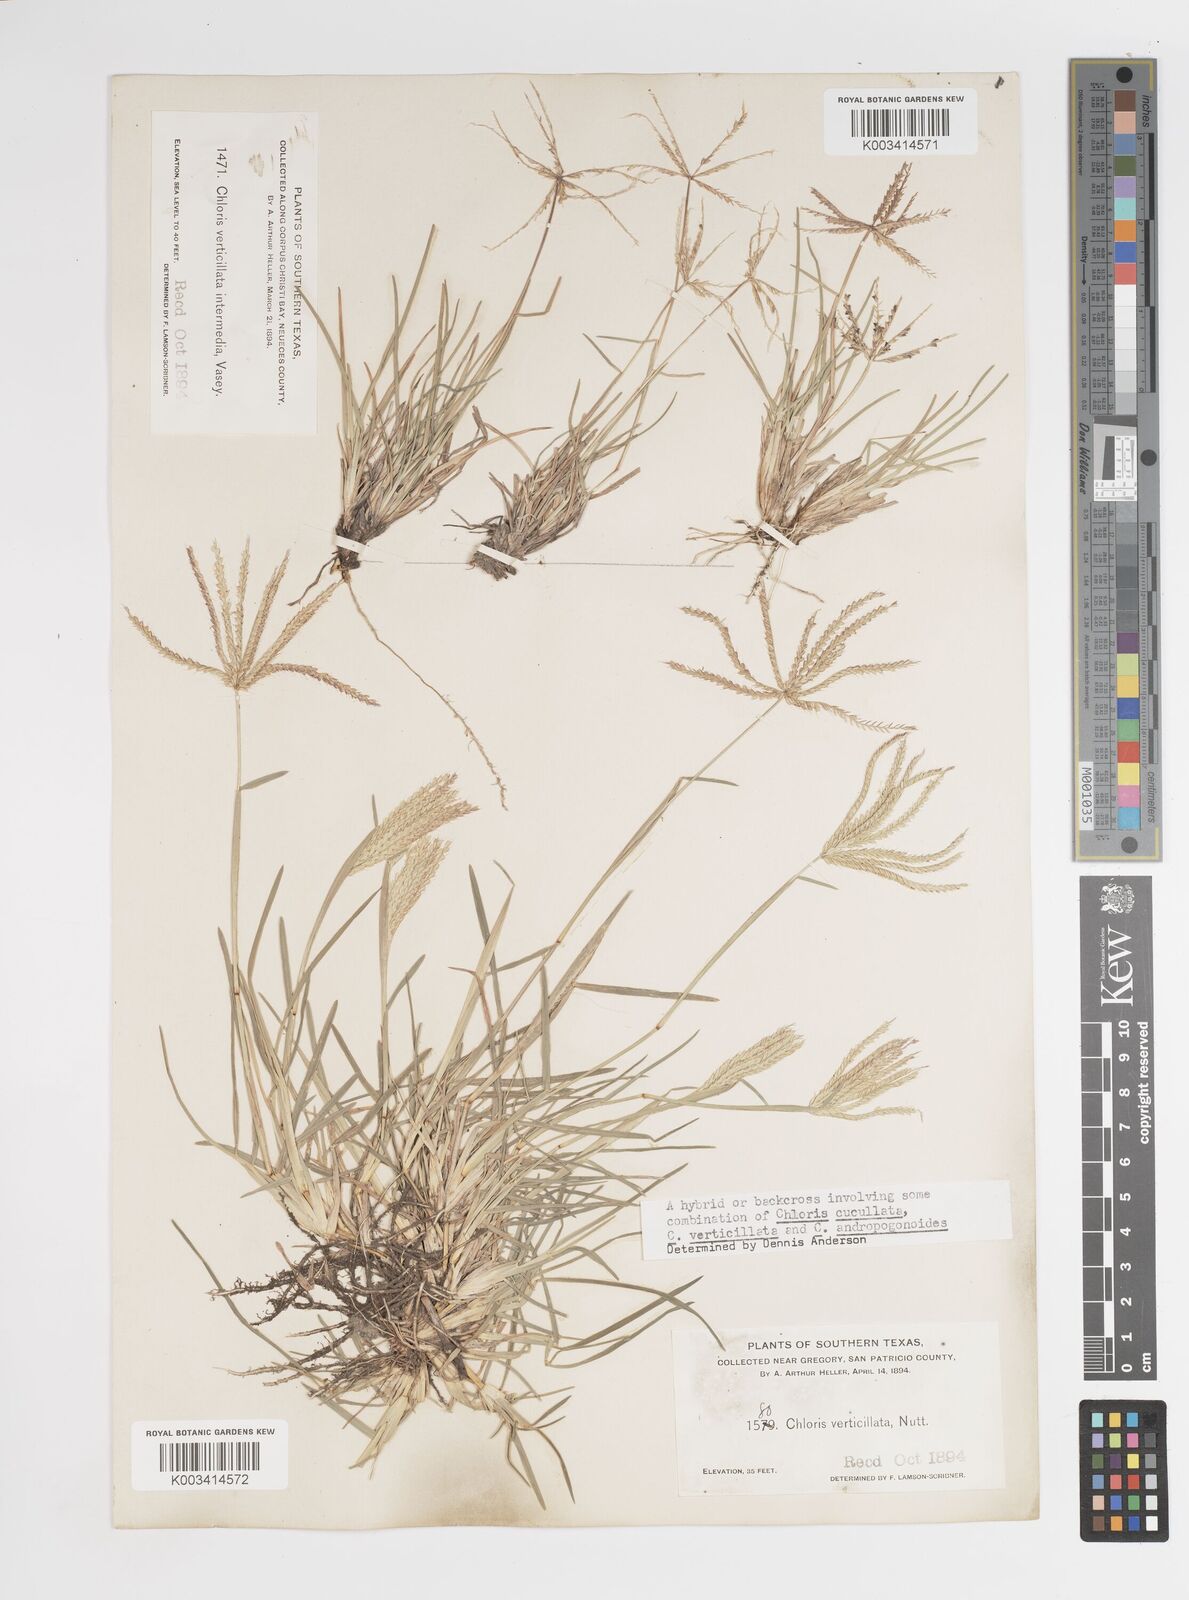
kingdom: Plantae
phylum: Tracheophyta
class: Liliopsida
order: Poales
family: Poaceae
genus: Chloris
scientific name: Chloris verticillata
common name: Tumble windmill grass
